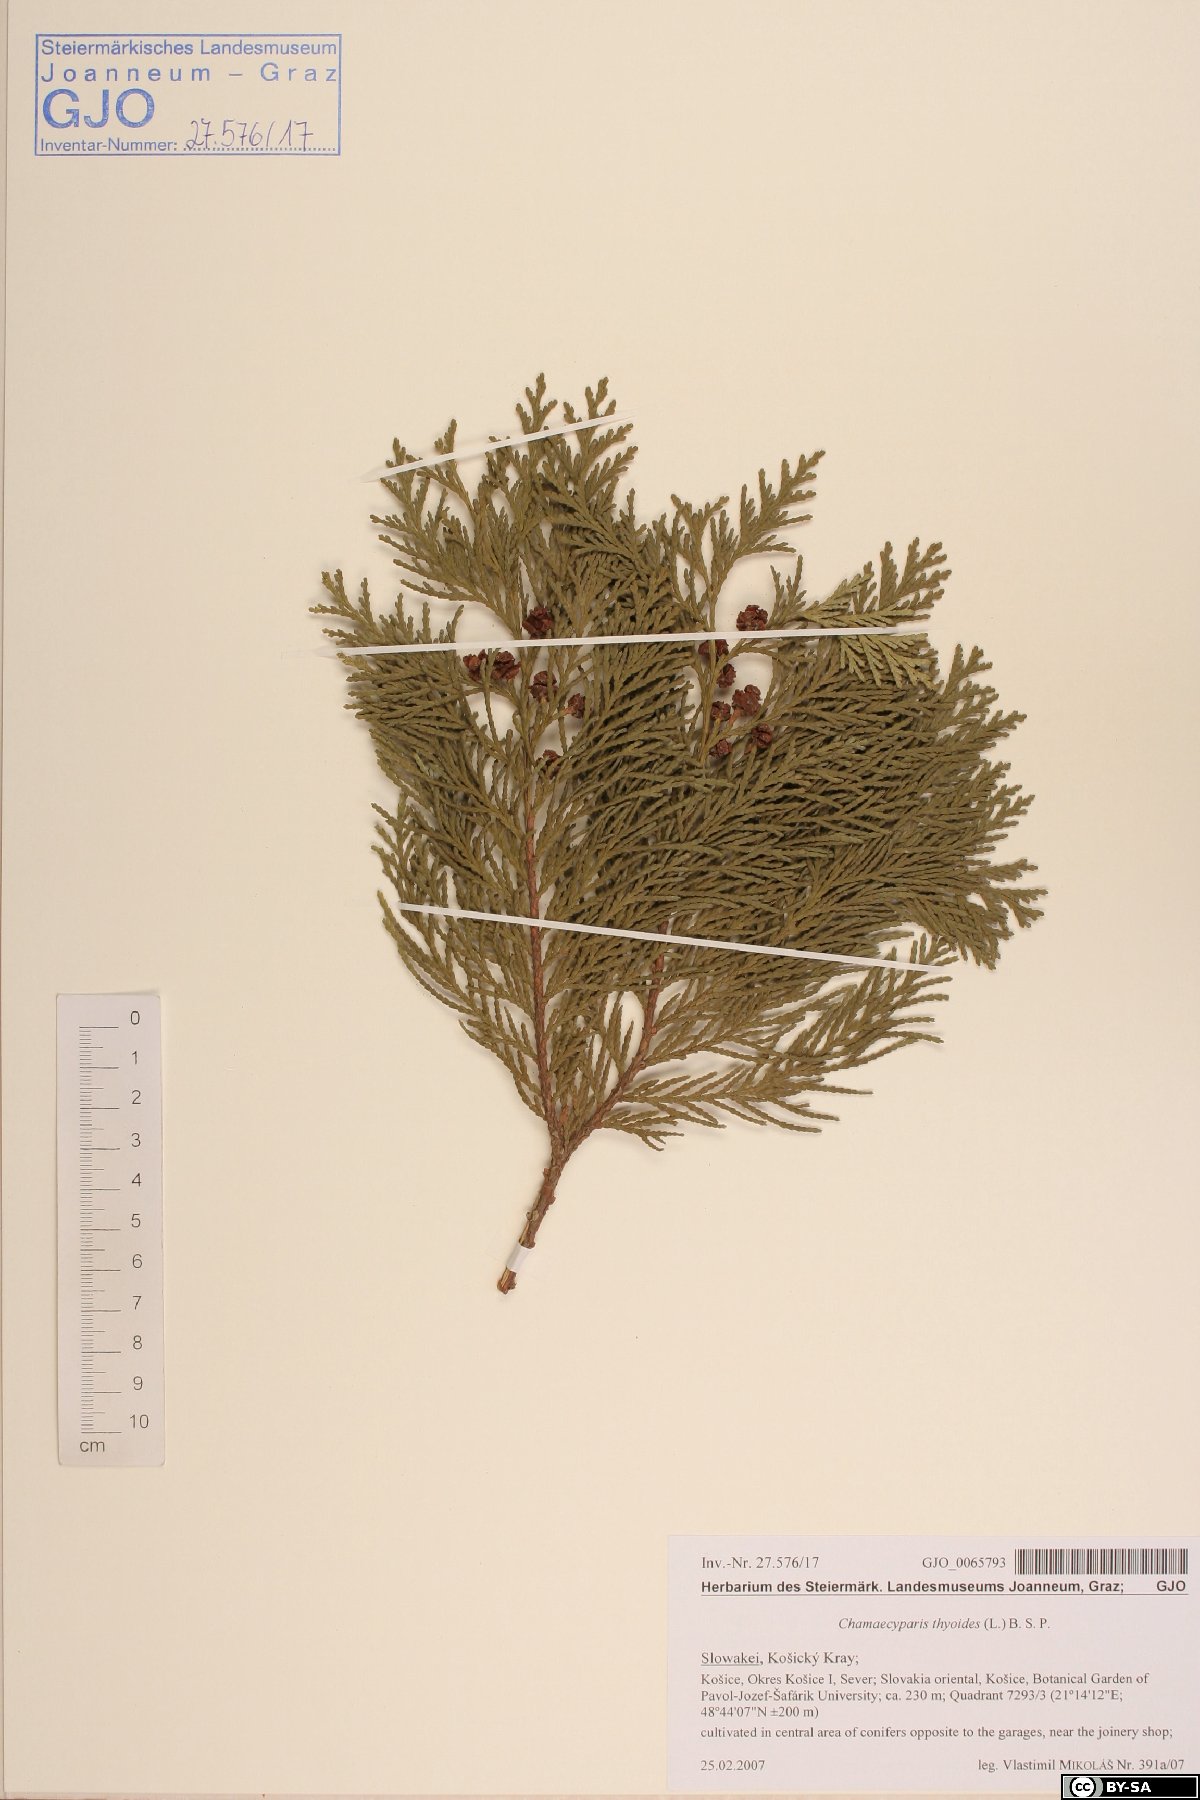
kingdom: Plantae
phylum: Tracheophyta
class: Pinopsida
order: Pinales
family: Cupressaceae
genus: Chamaecyparis
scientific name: Chamaecyparis thyoides
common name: Atlantic white cedar
